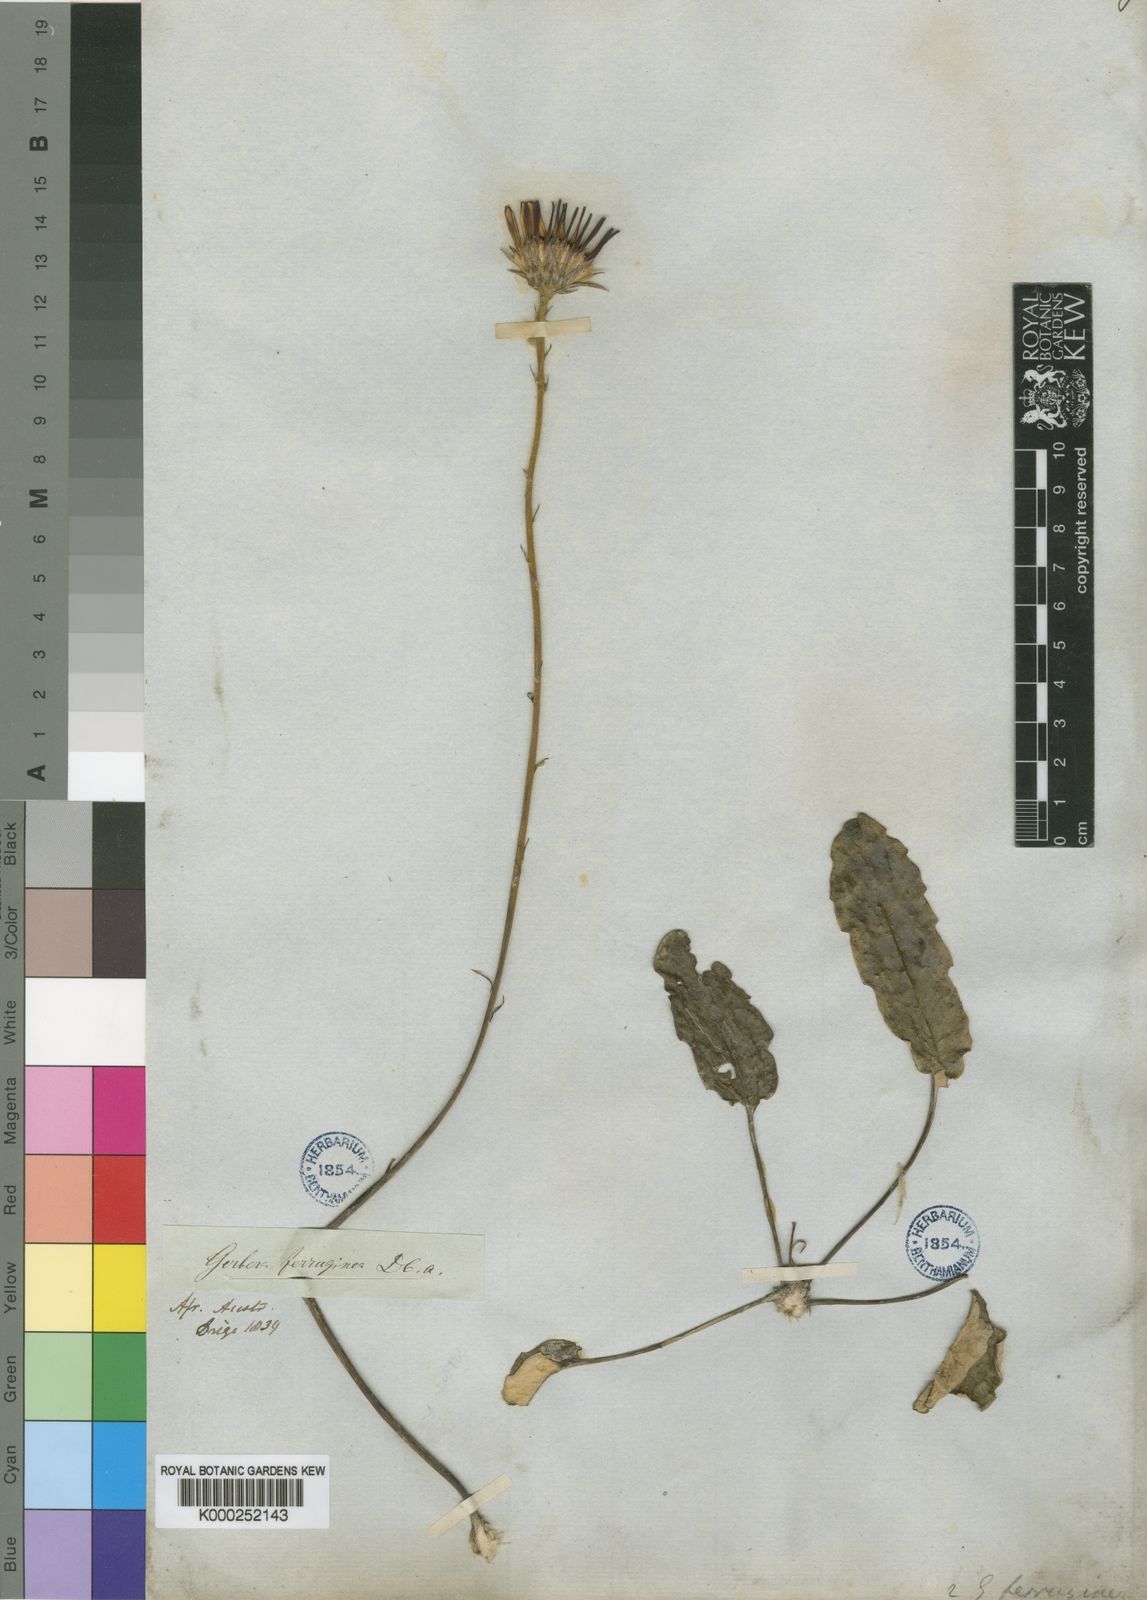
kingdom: Plantae
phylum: Tracheophyta
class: Magnoliopsida
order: Asterales
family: Asteraceae
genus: Gerbera
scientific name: Gerbera serrata
